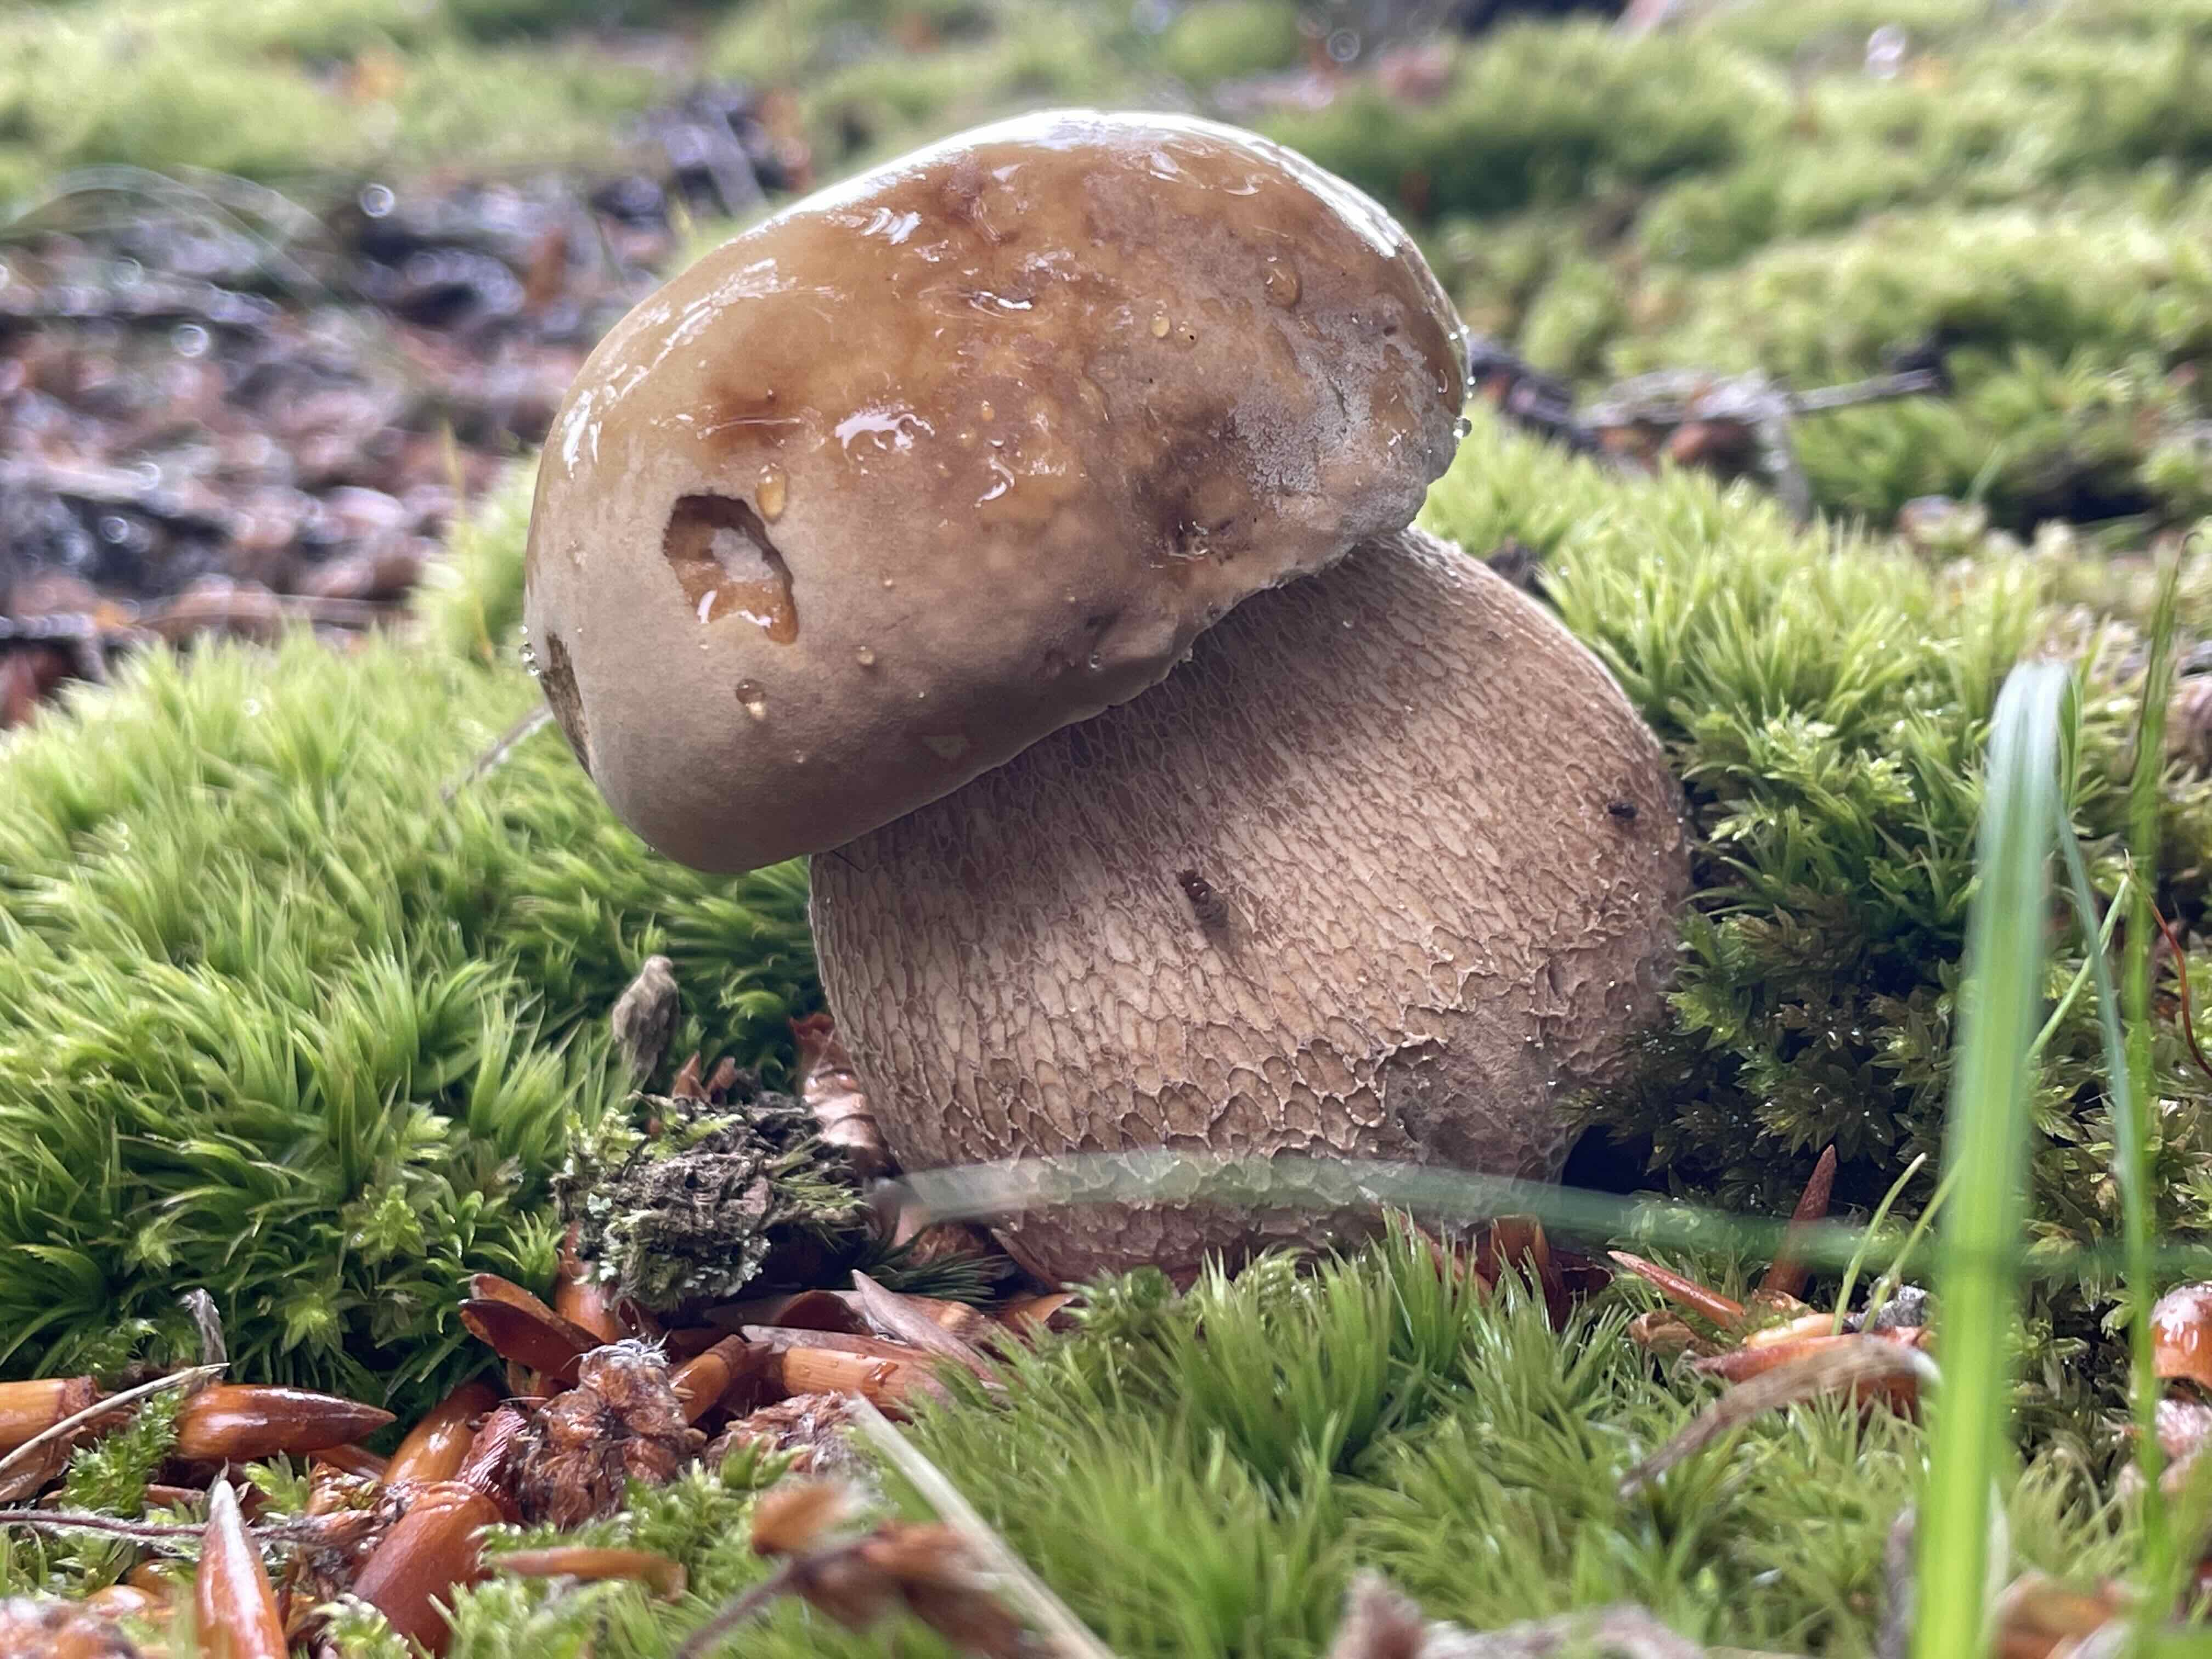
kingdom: Fungi
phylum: Basidiomycota
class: Agaricomycetes
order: Boletales
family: Boletaceae
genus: Boletus
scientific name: Boletus reticulatus
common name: sommer-rørhat
